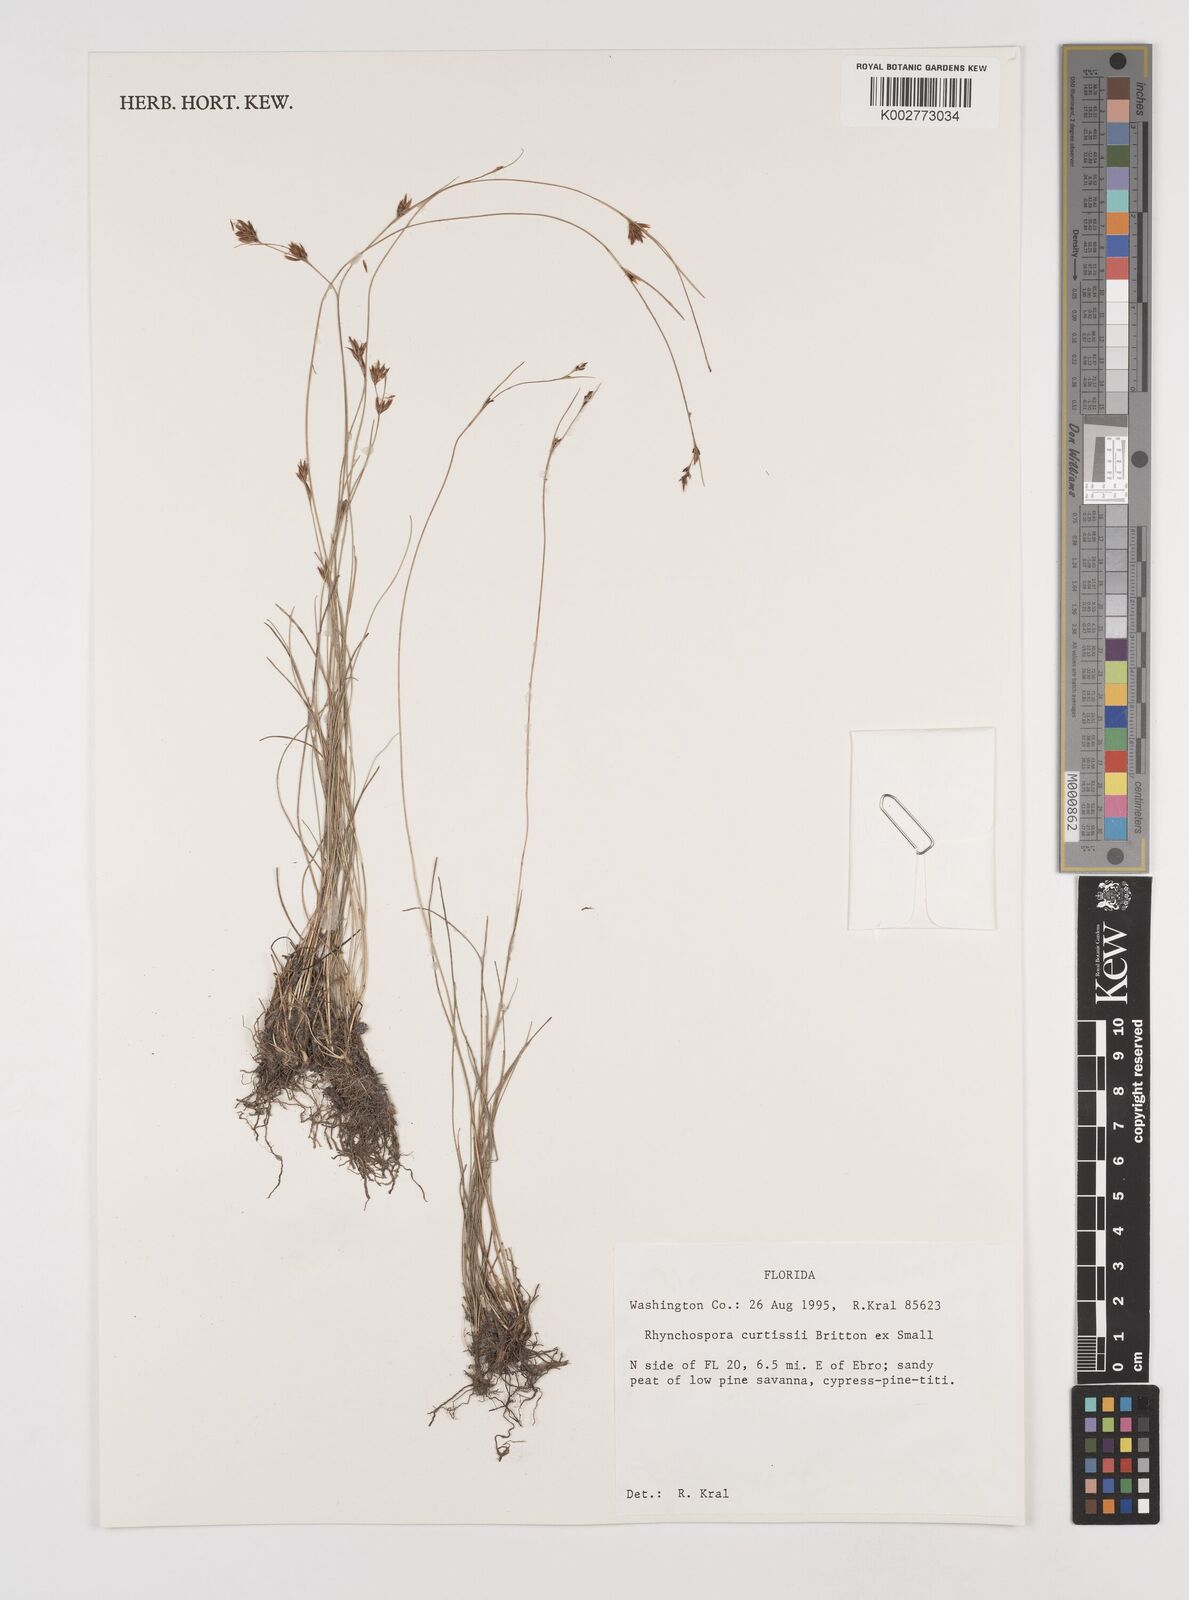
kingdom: Plantae
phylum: Tracheophyta
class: Liliopsida
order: Poales
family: Cyperaceae
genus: Rhynchospora
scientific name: Rhynchospora curtissii
